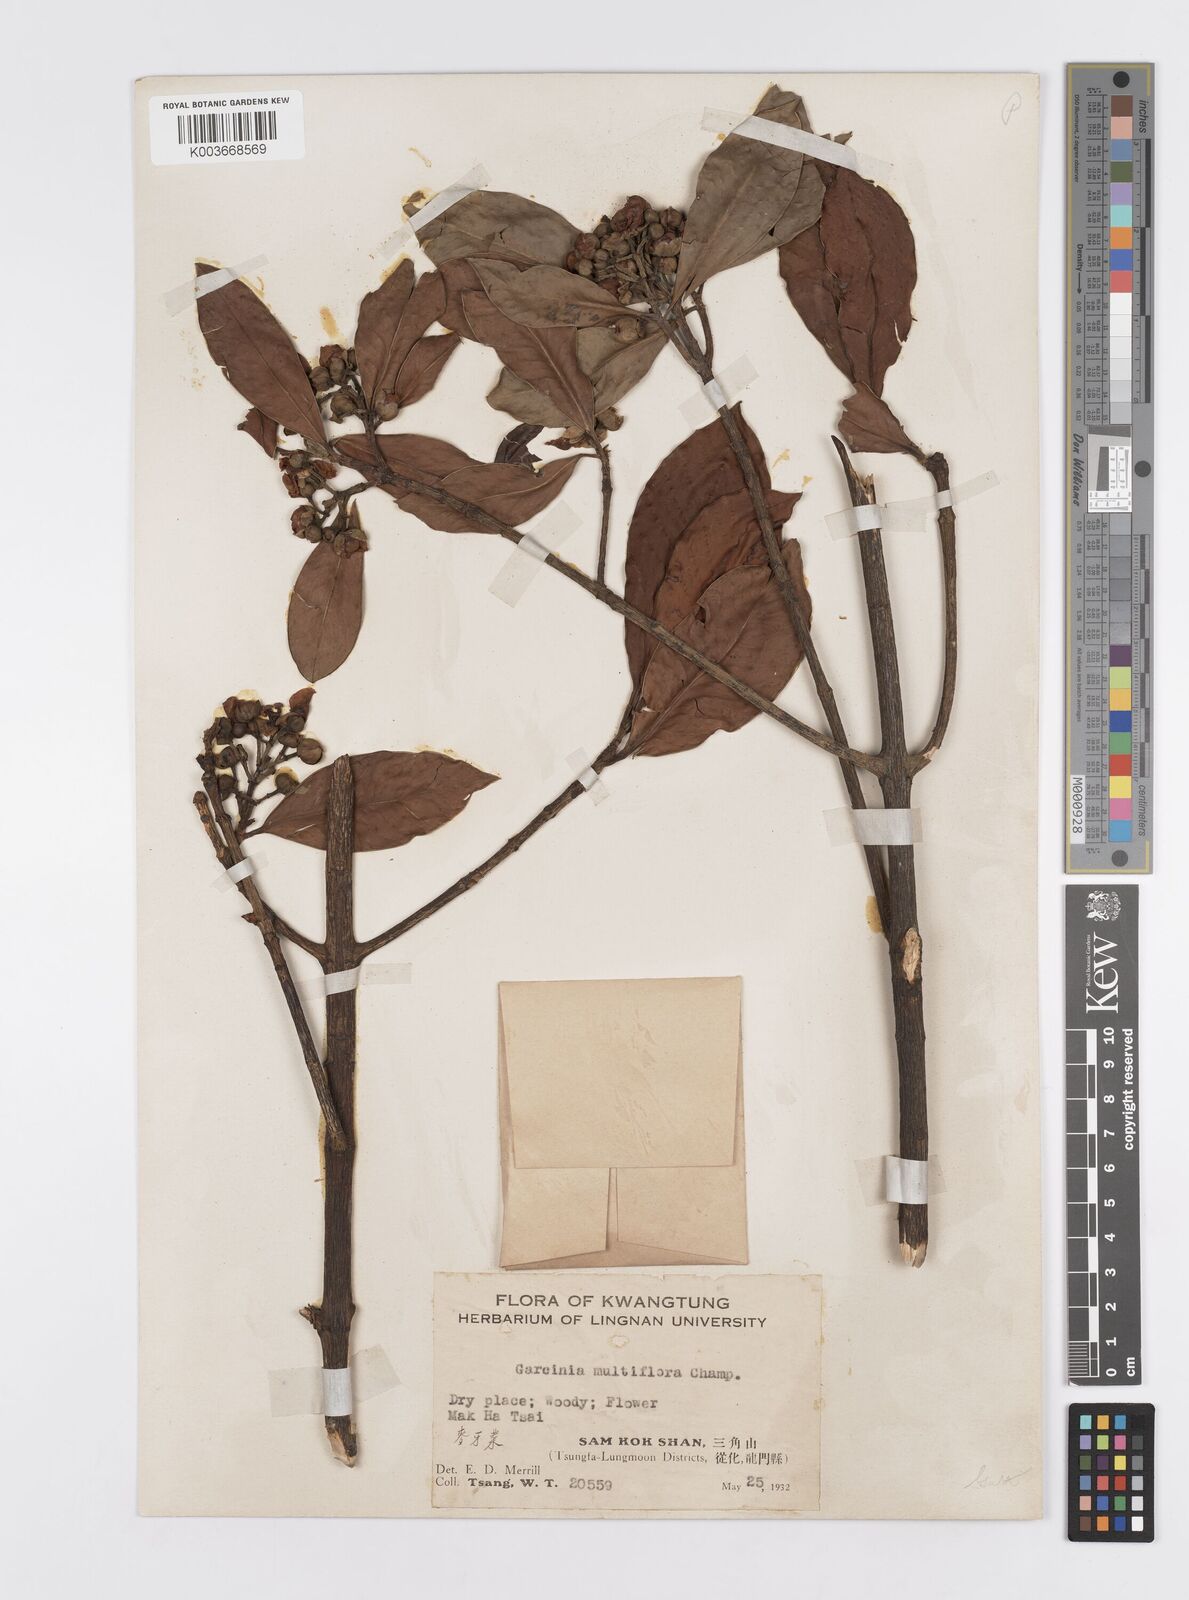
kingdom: Plantae
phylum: Tracheophyta
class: Magnoliopsida
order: Malpighiales
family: Clusiaceae
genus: Garcinia
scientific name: Garcinia multiflora
